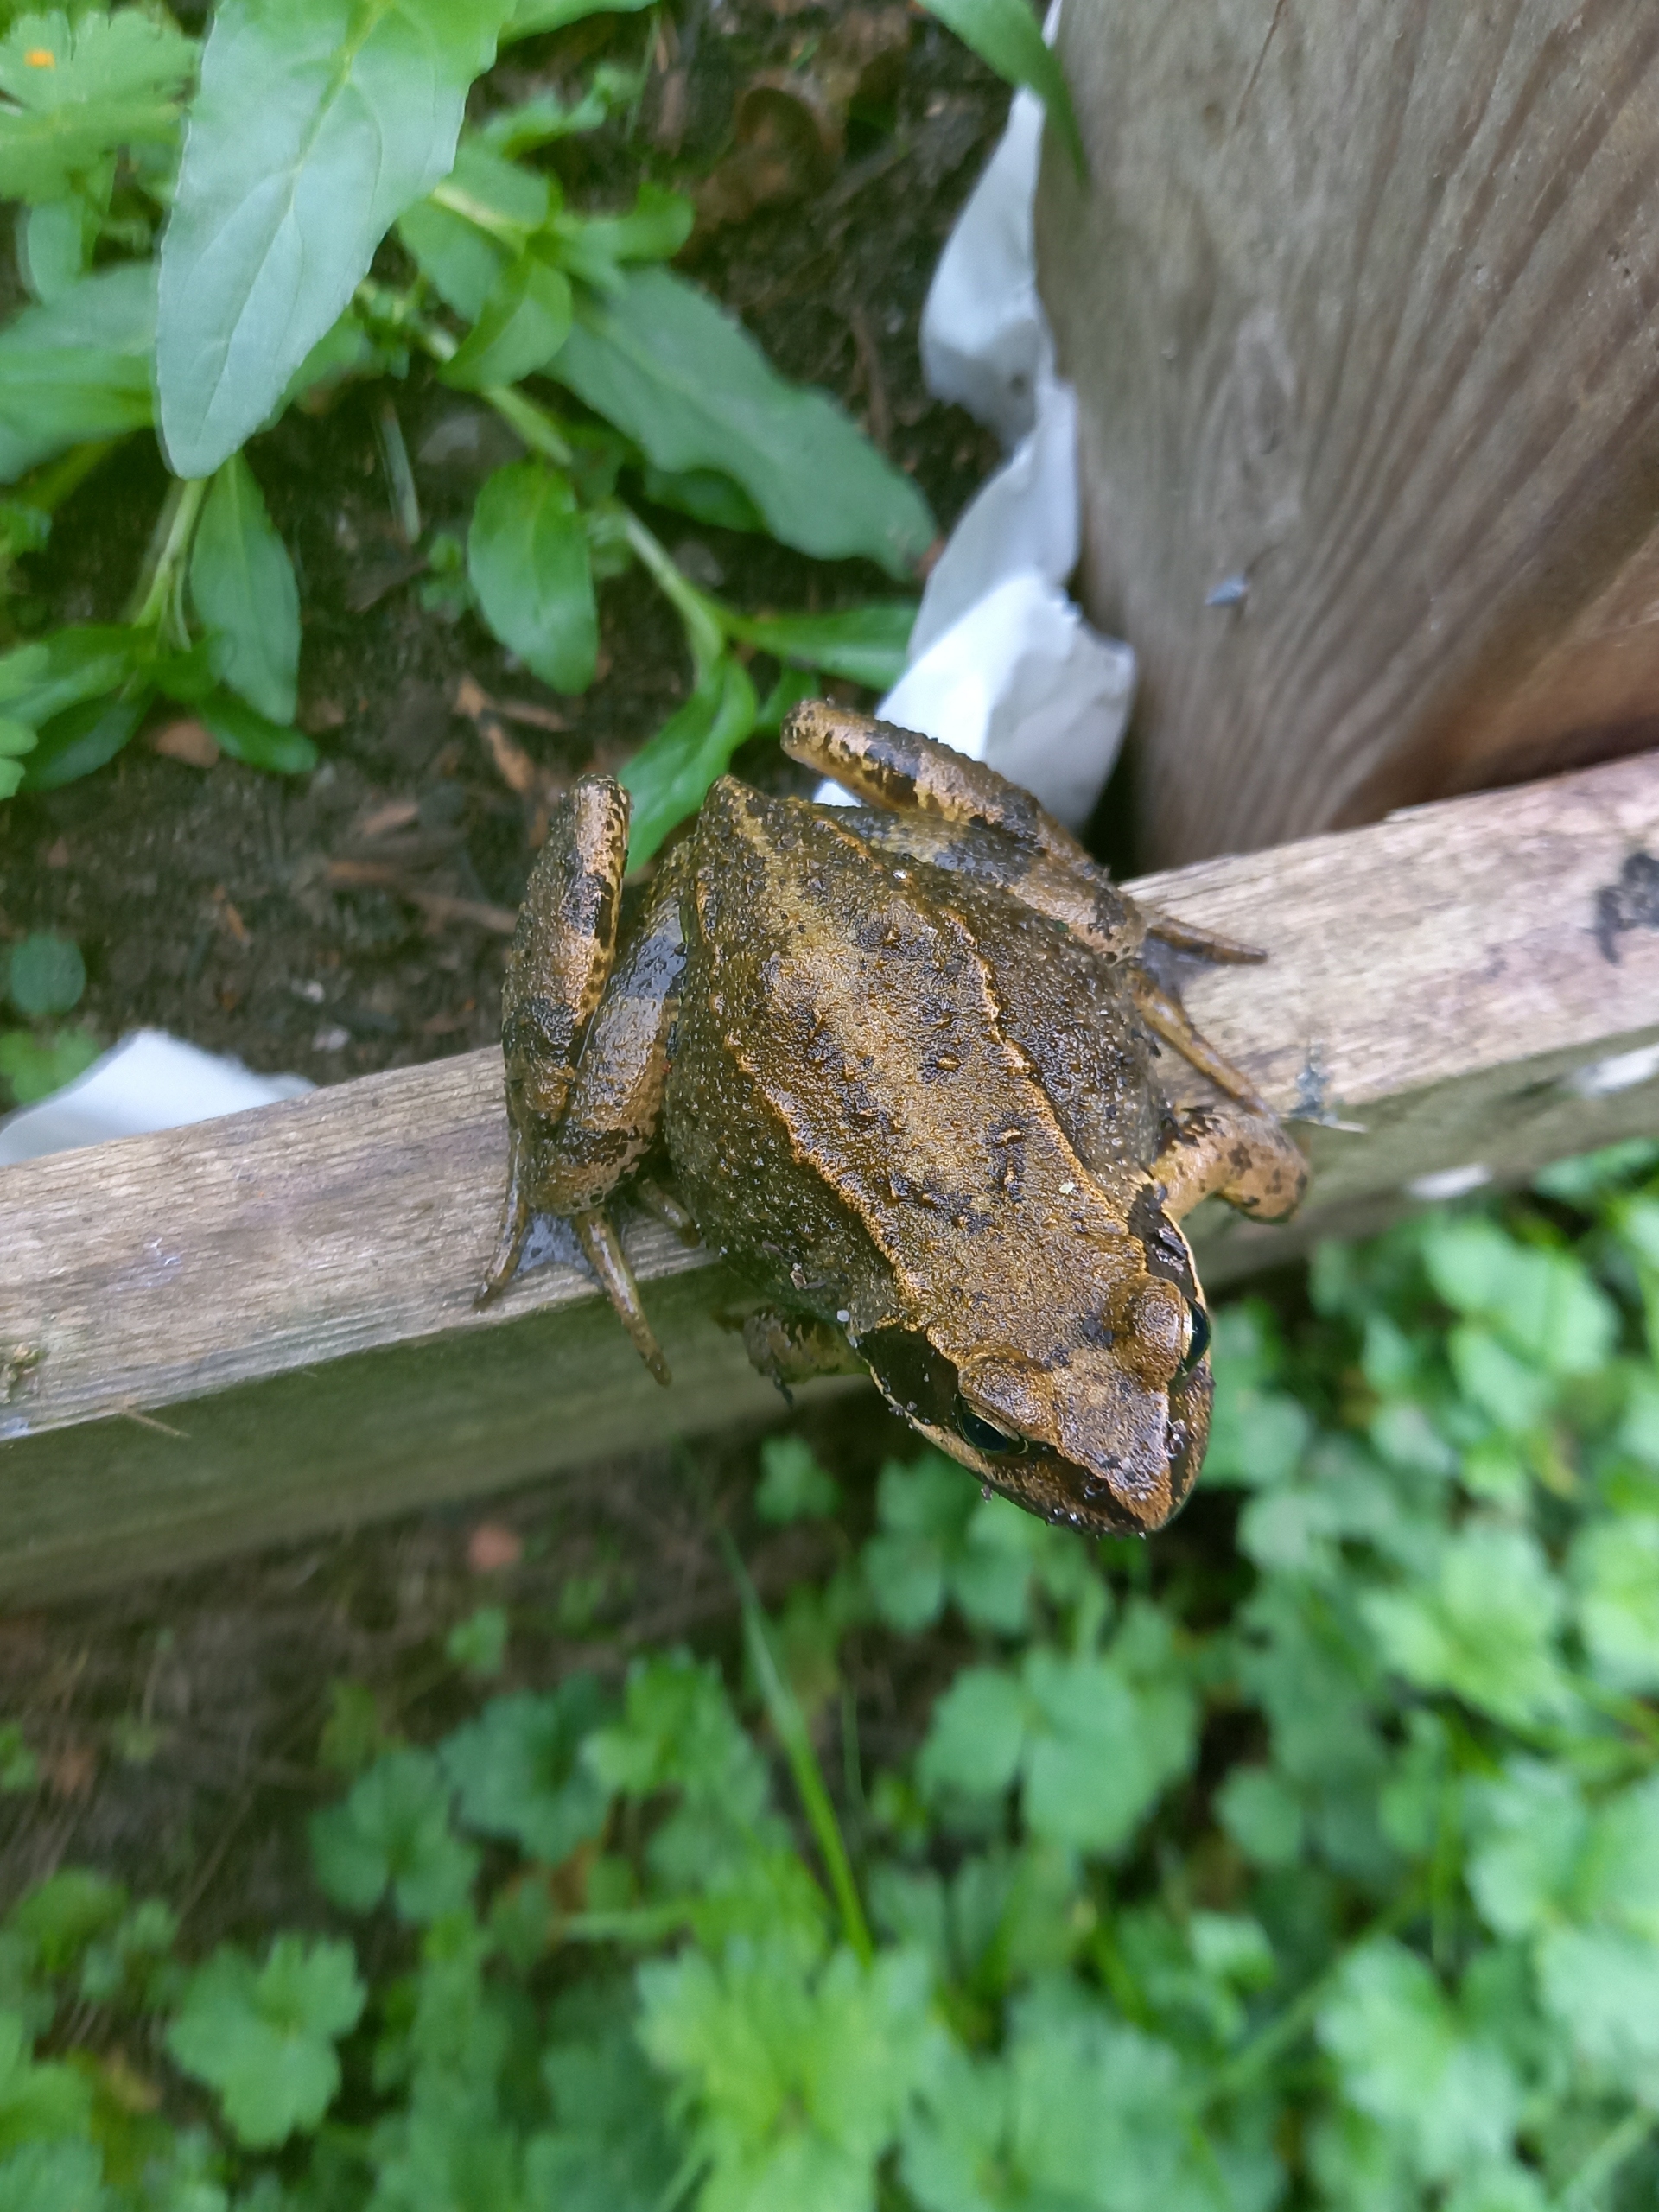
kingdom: Animalia
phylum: Chordata
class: Amphibia
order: Anura
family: Ranidae
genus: Rana
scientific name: Rana temporaria
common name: Butsnudet frø
